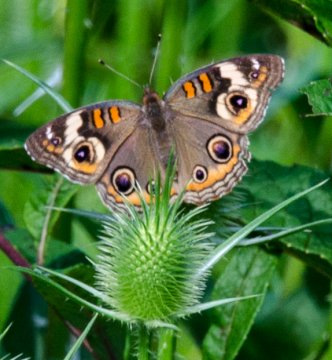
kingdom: Animalia
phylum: Arthropoda
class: Insecta
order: Lepidoptera
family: Nymphalidae
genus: Junonia
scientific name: Junonia coenia
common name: Common Buckeye
